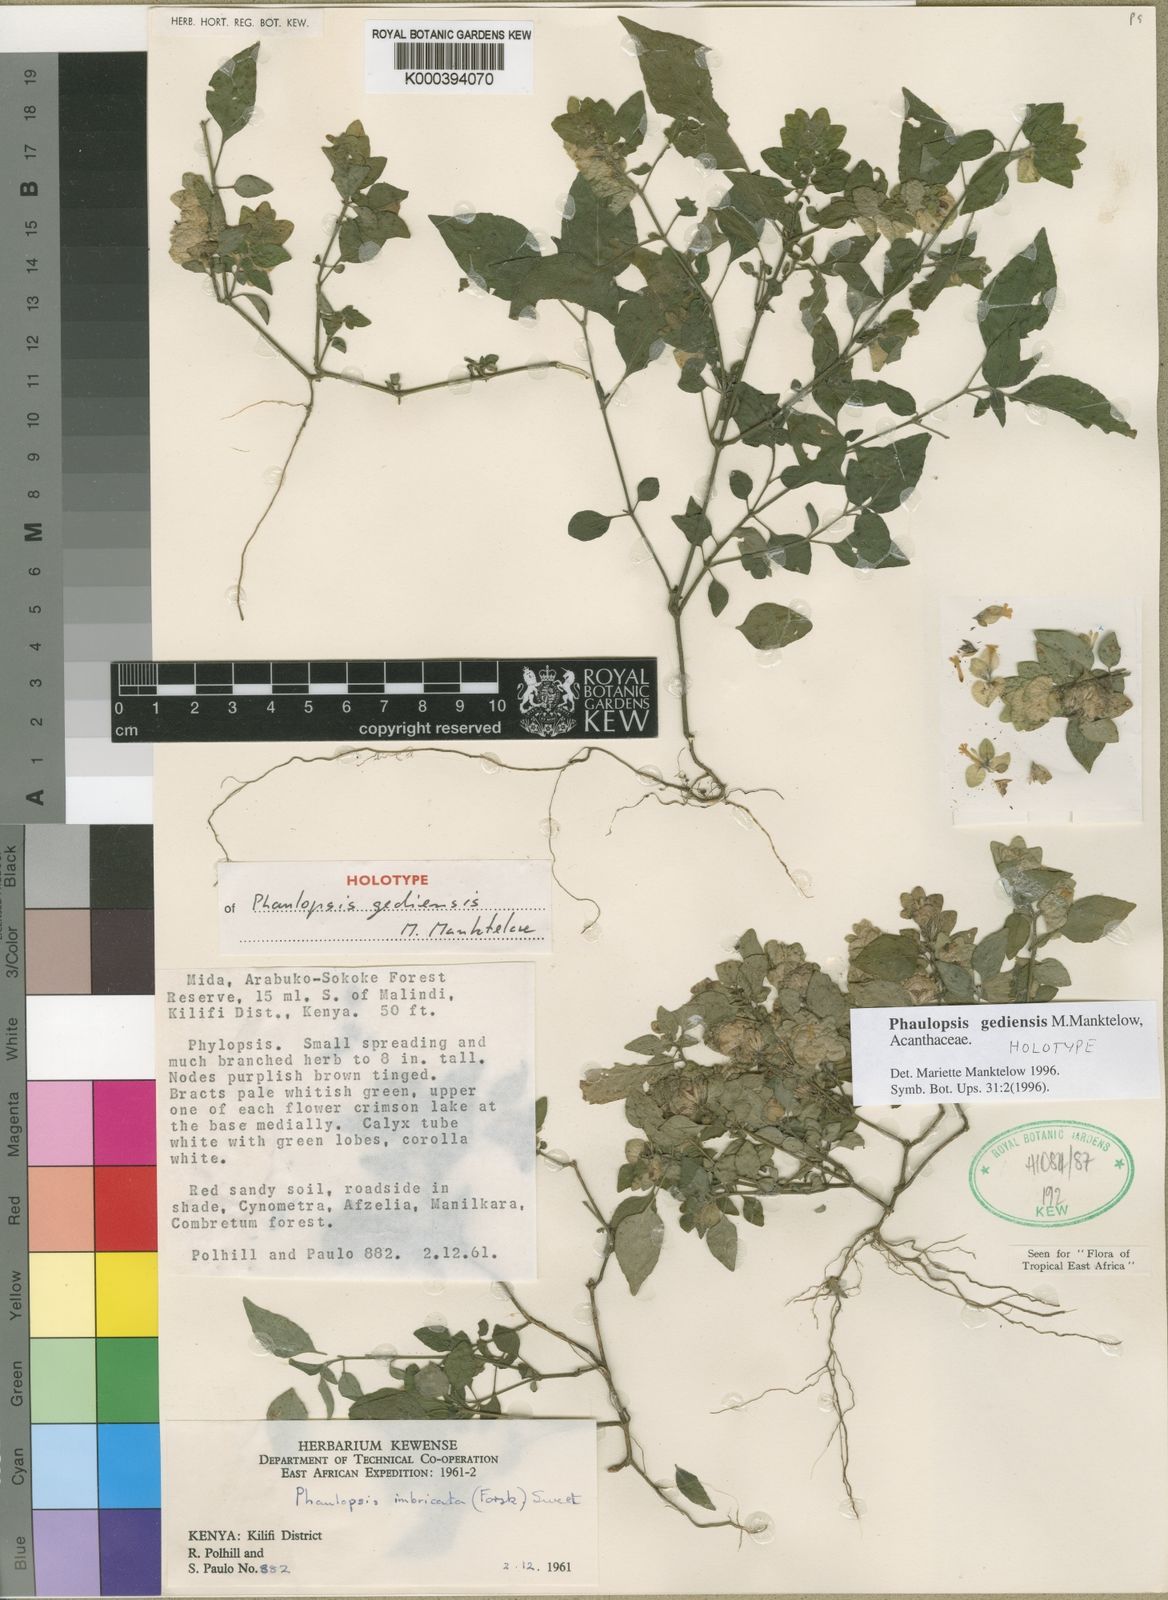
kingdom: Plantae
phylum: Tracheophyta
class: Magnoliopsida
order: Lamiales
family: Acanthaceae
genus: Phaulopsis
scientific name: Phaulopsis gediensis
